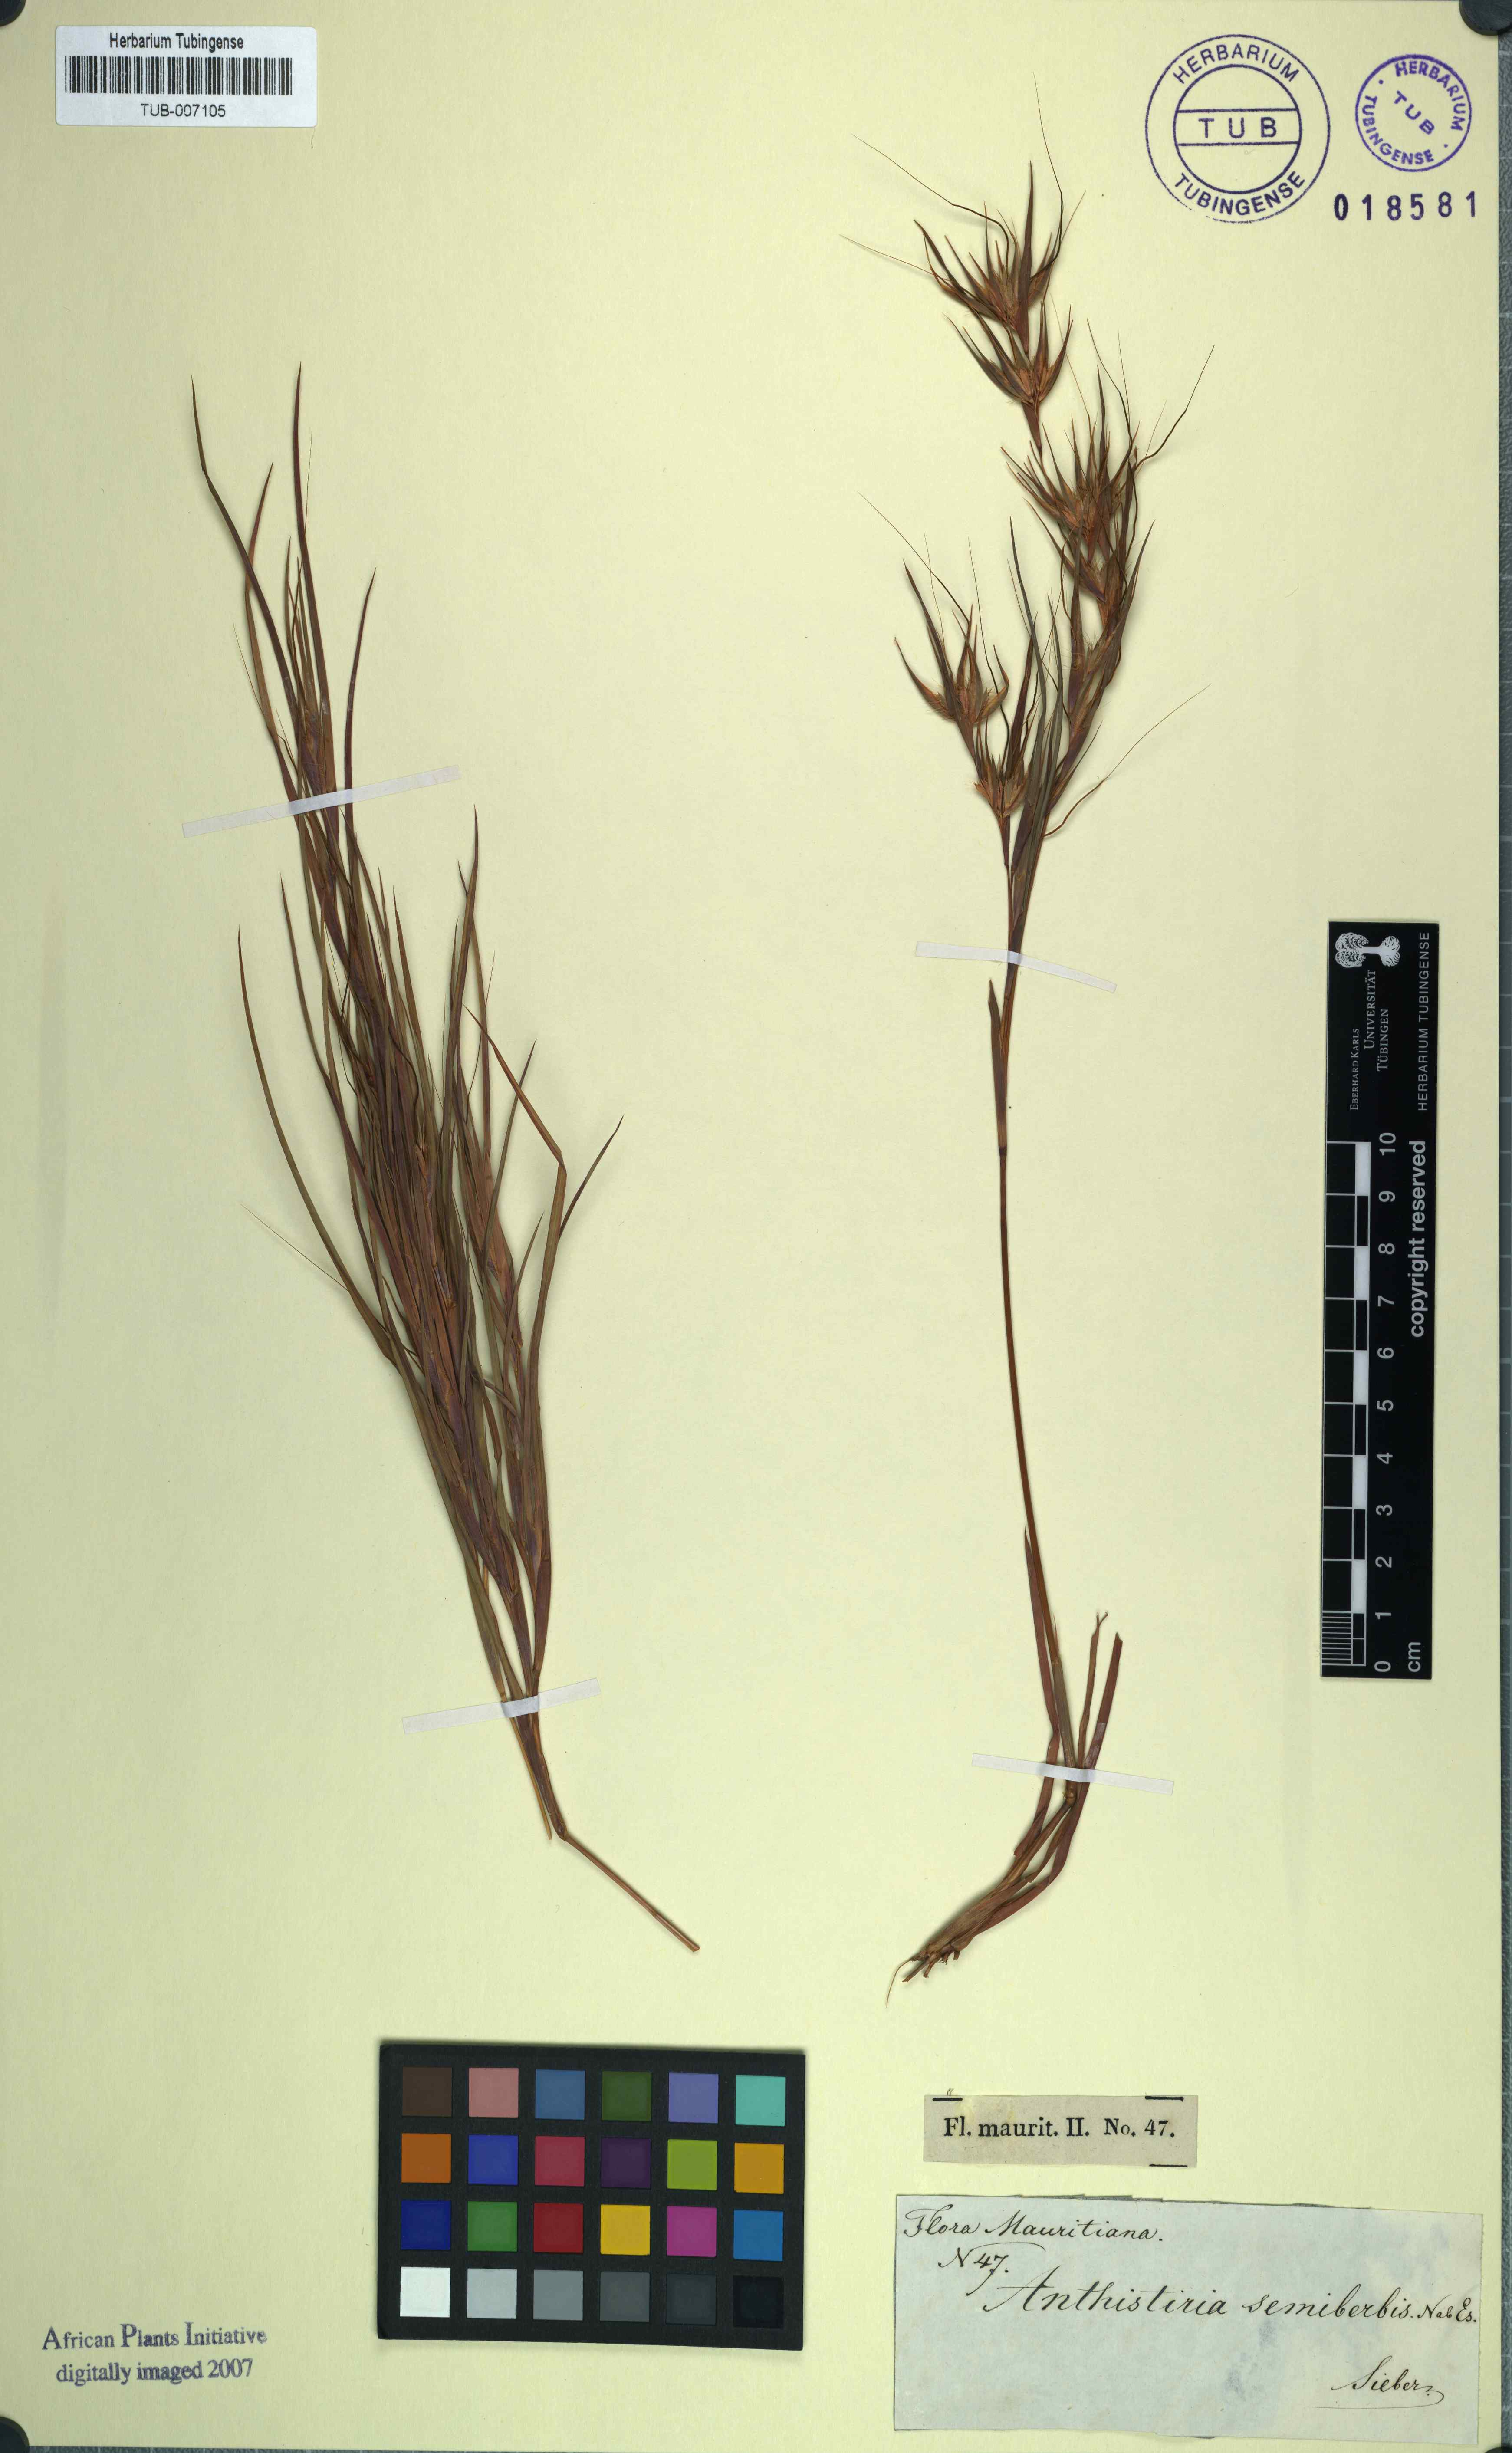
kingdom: Plantae
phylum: Tracheophyta
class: Liliopsida
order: Poales
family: Poaceae
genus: Themeda
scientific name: Themeda quadrivalvis
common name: Kangaroo grass
